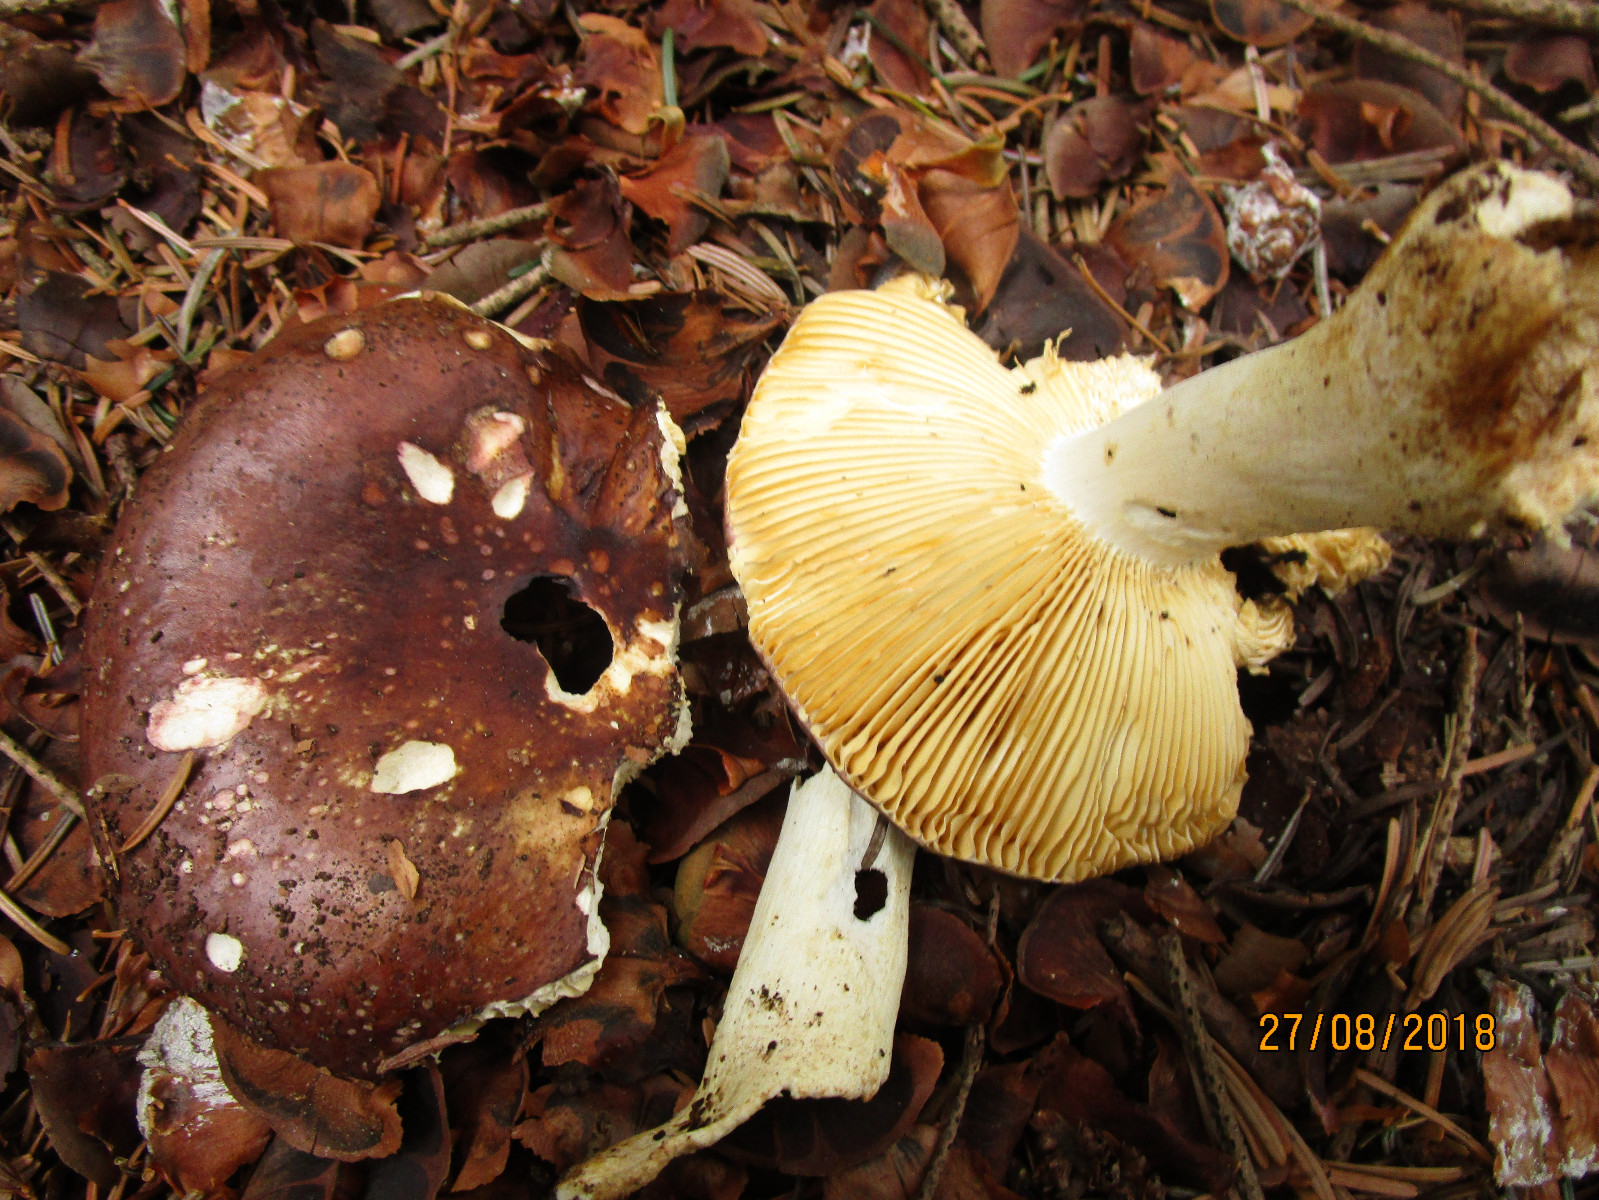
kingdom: Fungi
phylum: Basidiomycota
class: Agaricomycetes
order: Russulales
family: Russulaceae
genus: Russula
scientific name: Russula integra
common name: mandel-skørhat
